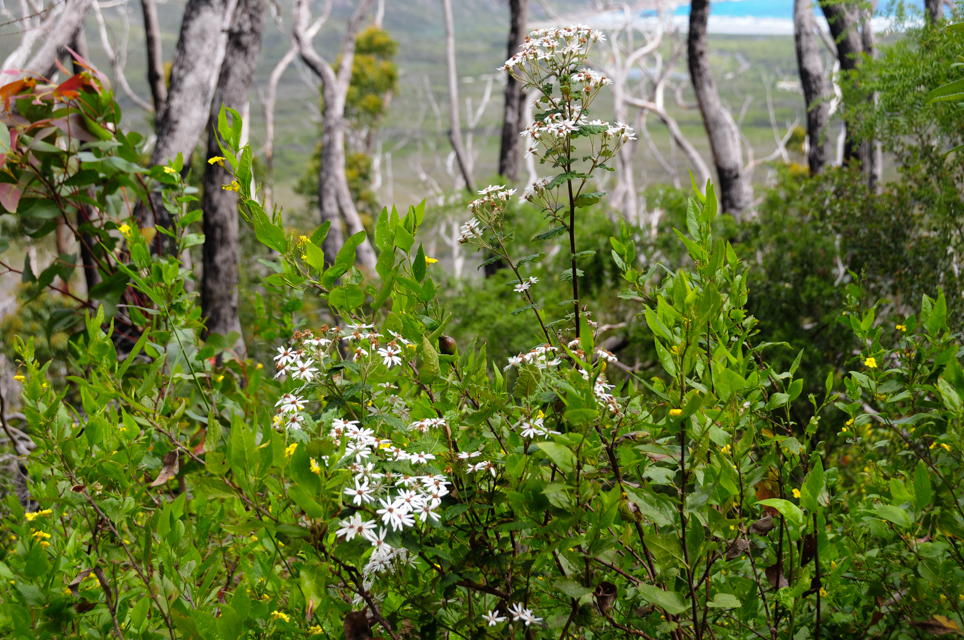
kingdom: Plantae
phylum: Tracheophyta
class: Magnoliopsida
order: Asterales
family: Asteraceae
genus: Olearia
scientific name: Olearia quercifolia
